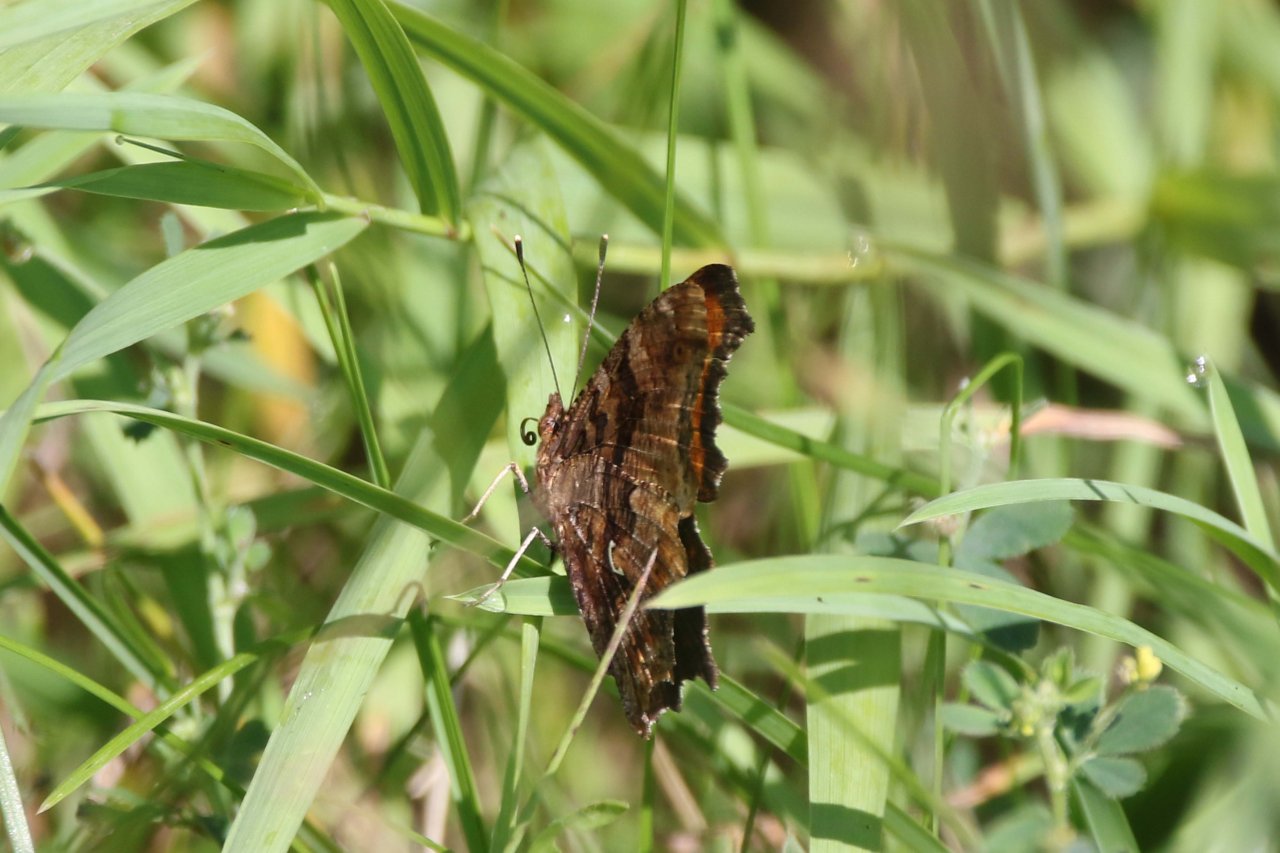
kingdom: Animalia
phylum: Arthropoda
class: Insecta
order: Lepidoptera
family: Nymphalidae
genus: Polygonia
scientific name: Polygonia comma
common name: Eastern Comma
